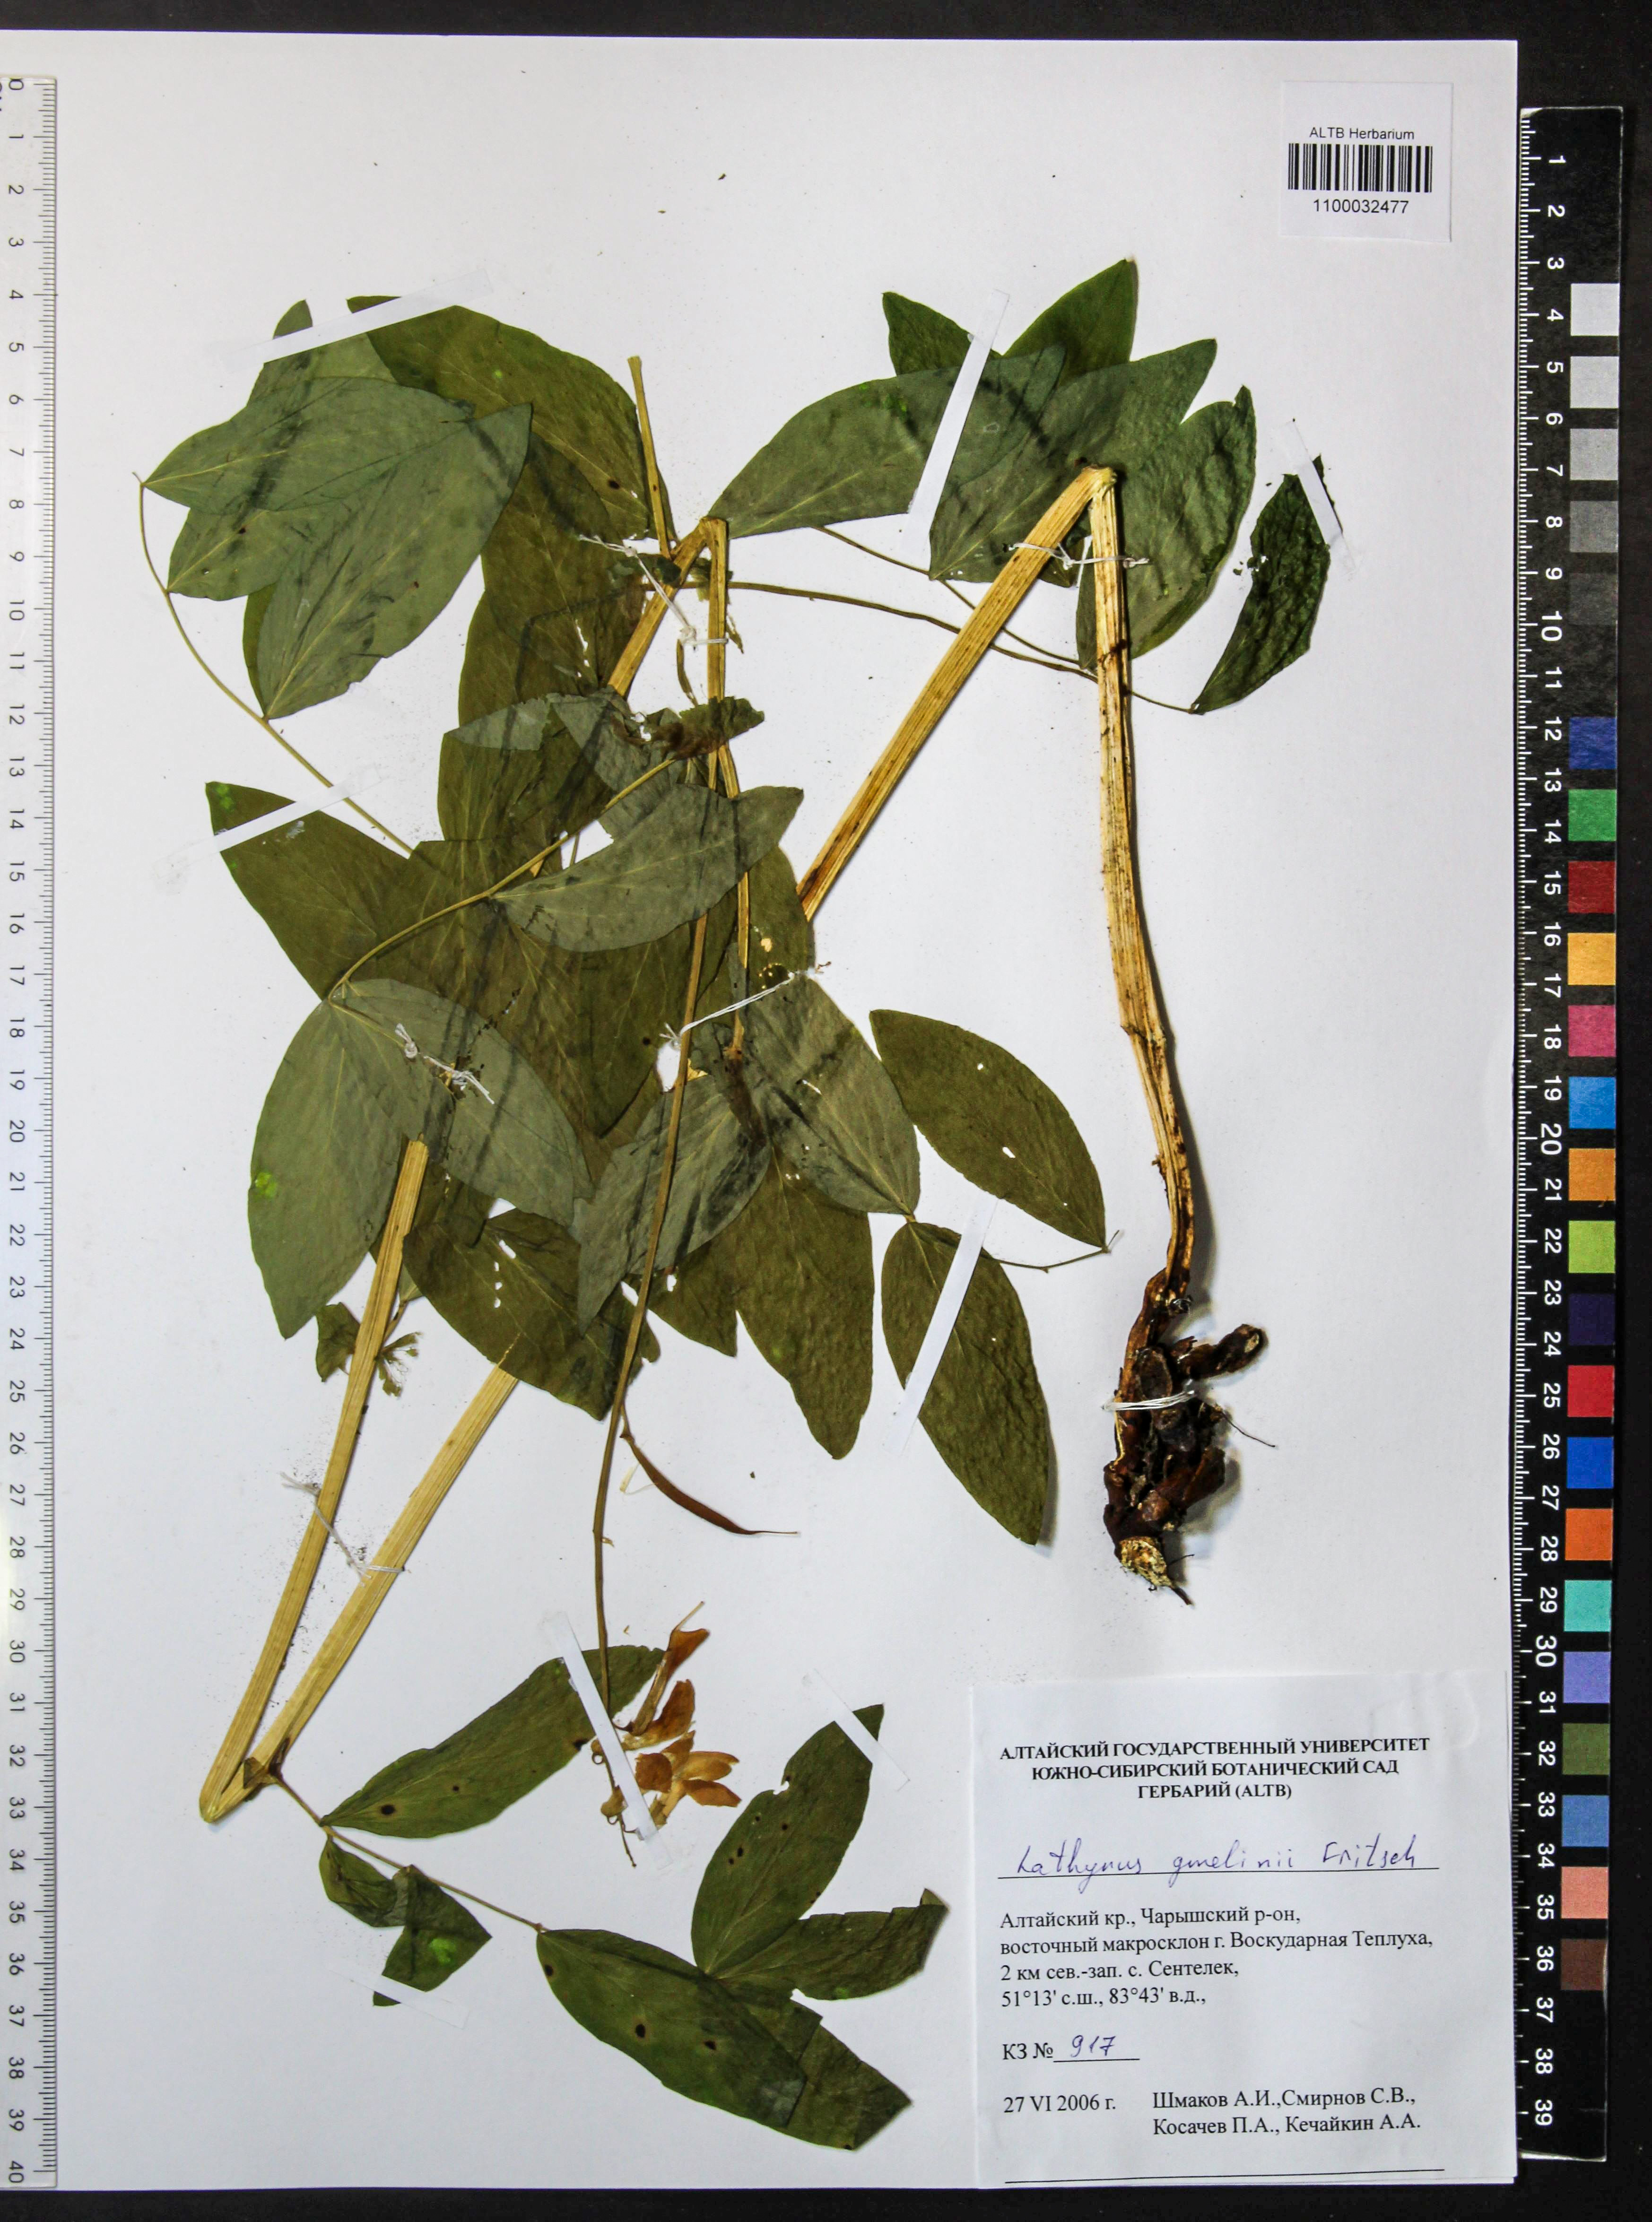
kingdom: Plantae
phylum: Tracheophyta
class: Magnoliopsida
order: Fabales
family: Fabaceae
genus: Lathyrus
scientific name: Lathyrus gmelinii
